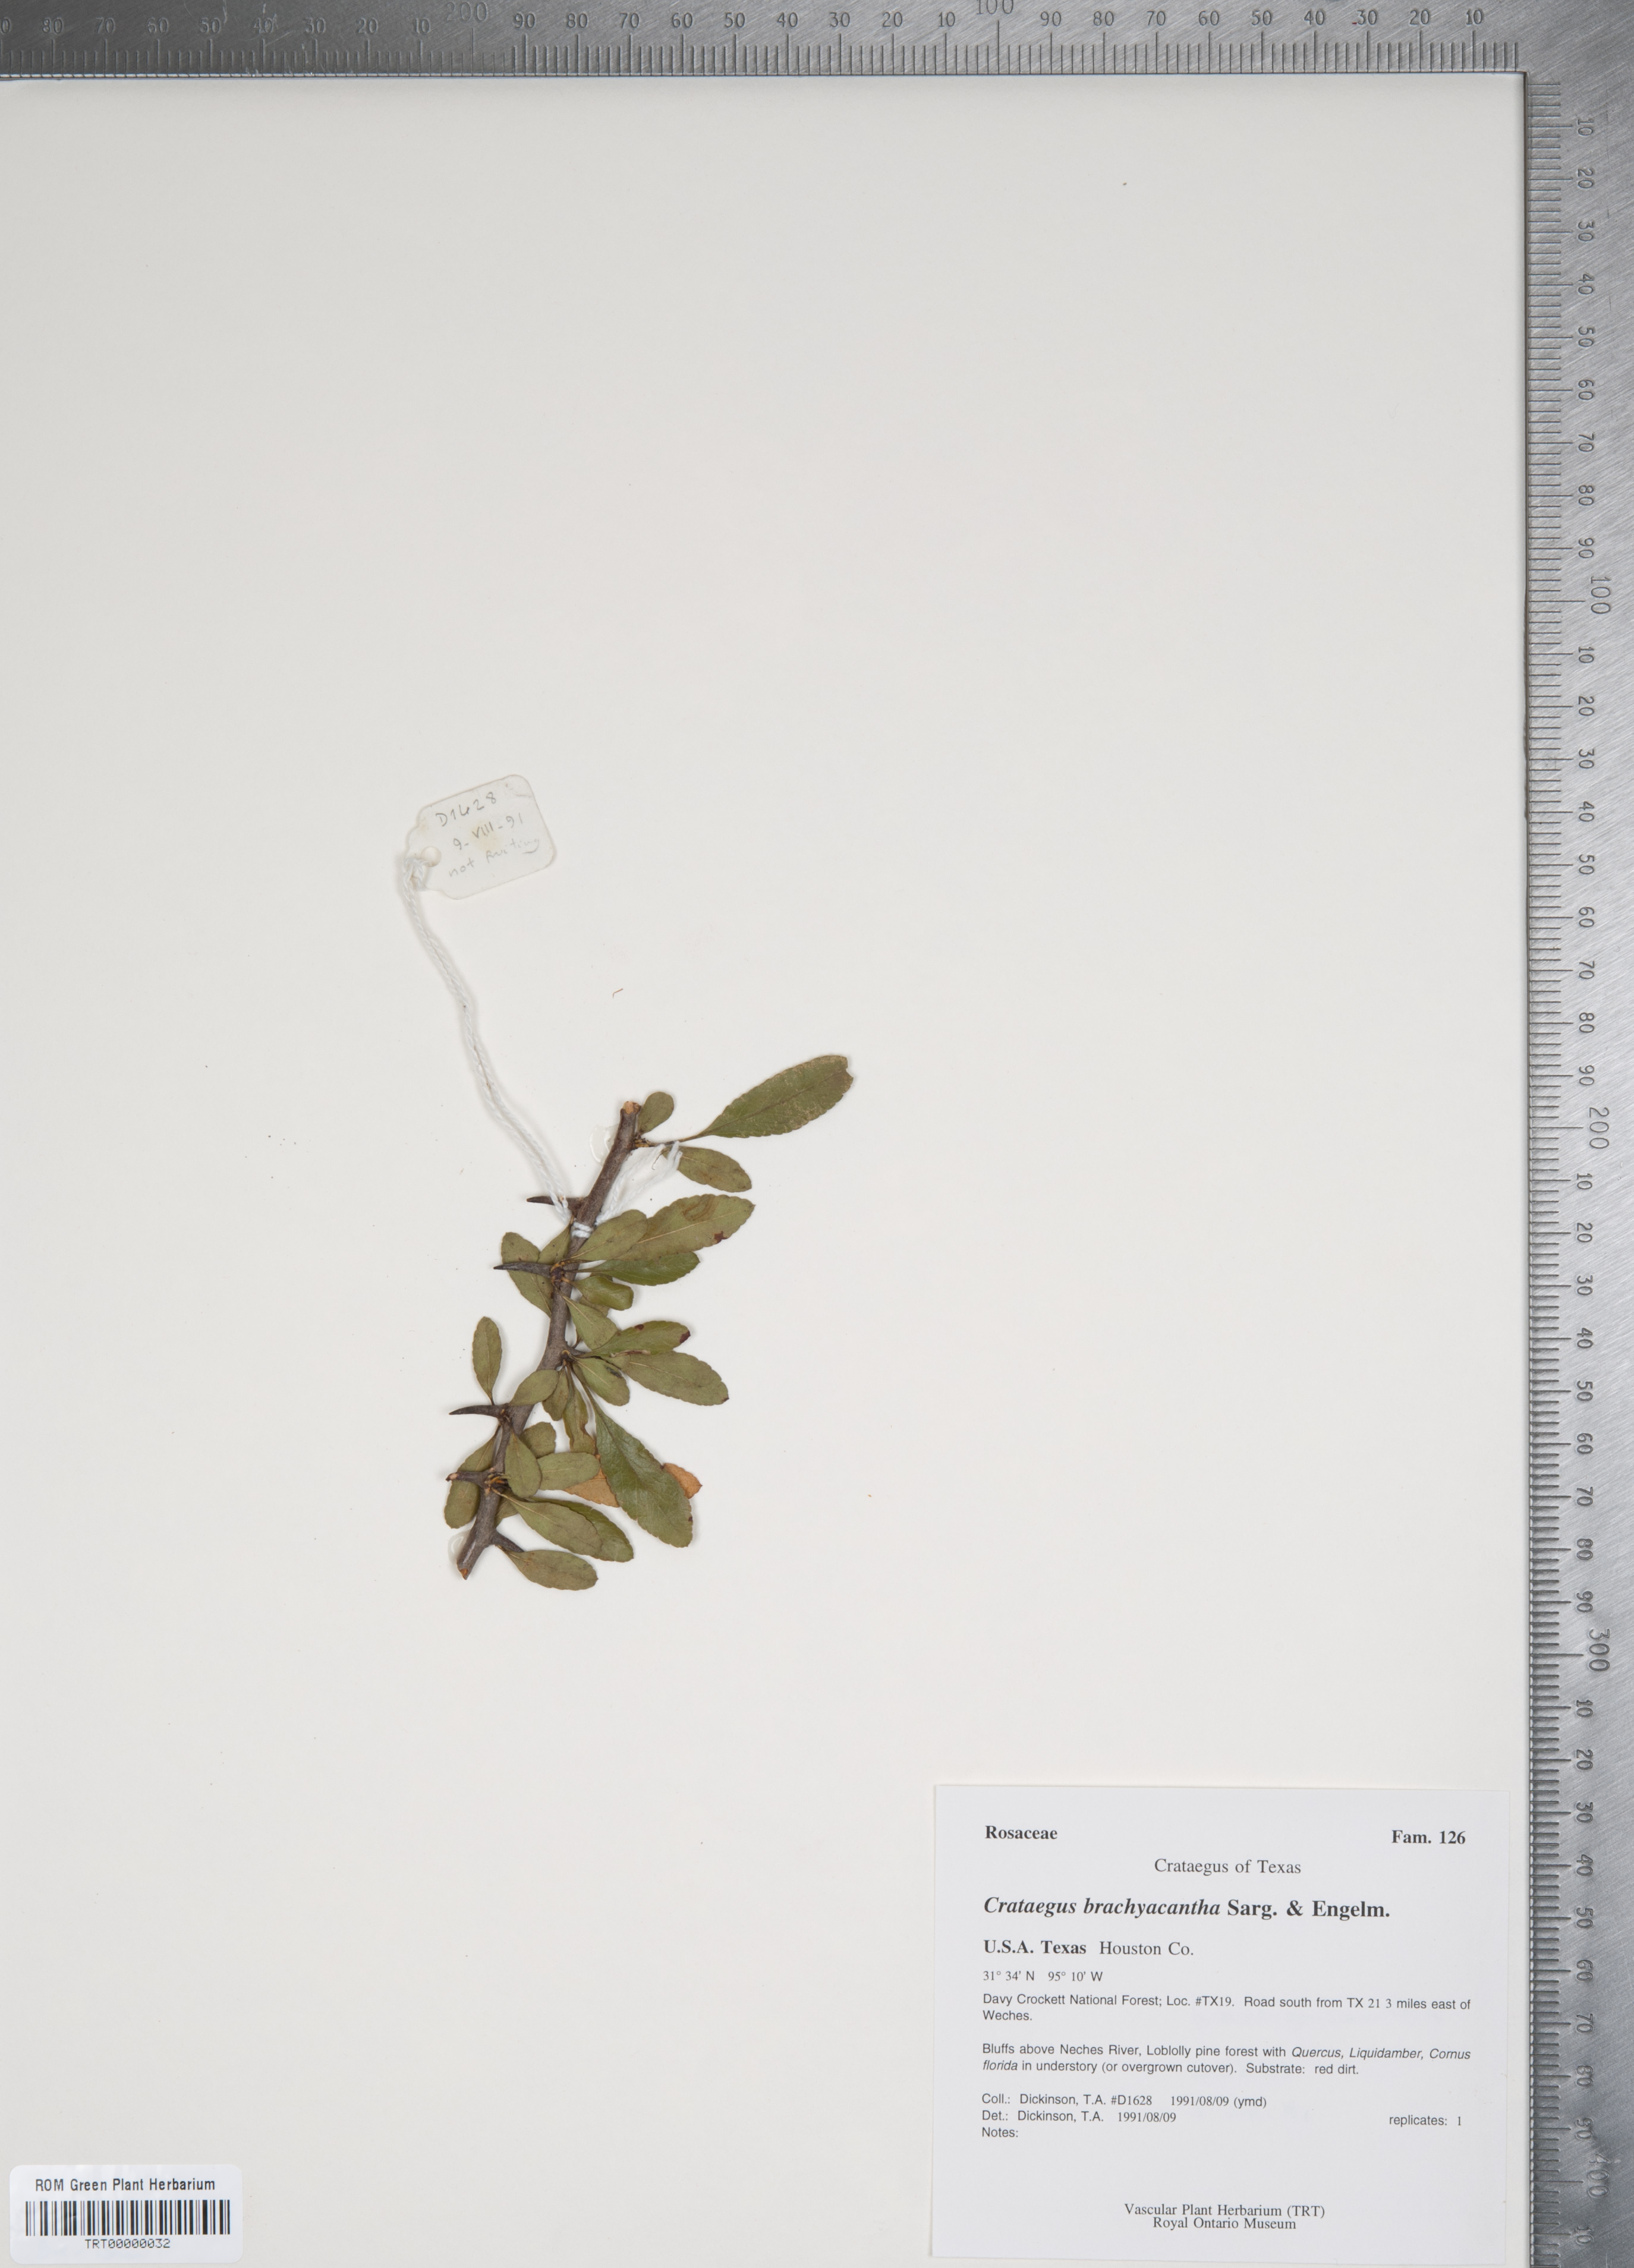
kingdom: Plantae
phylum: Tracheophyta
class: Magnoliopsida
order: Rosales
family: Rosaceae
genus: Crataegus
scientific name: Crataegus brachyacantha
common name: Blueberry-hawthorn
